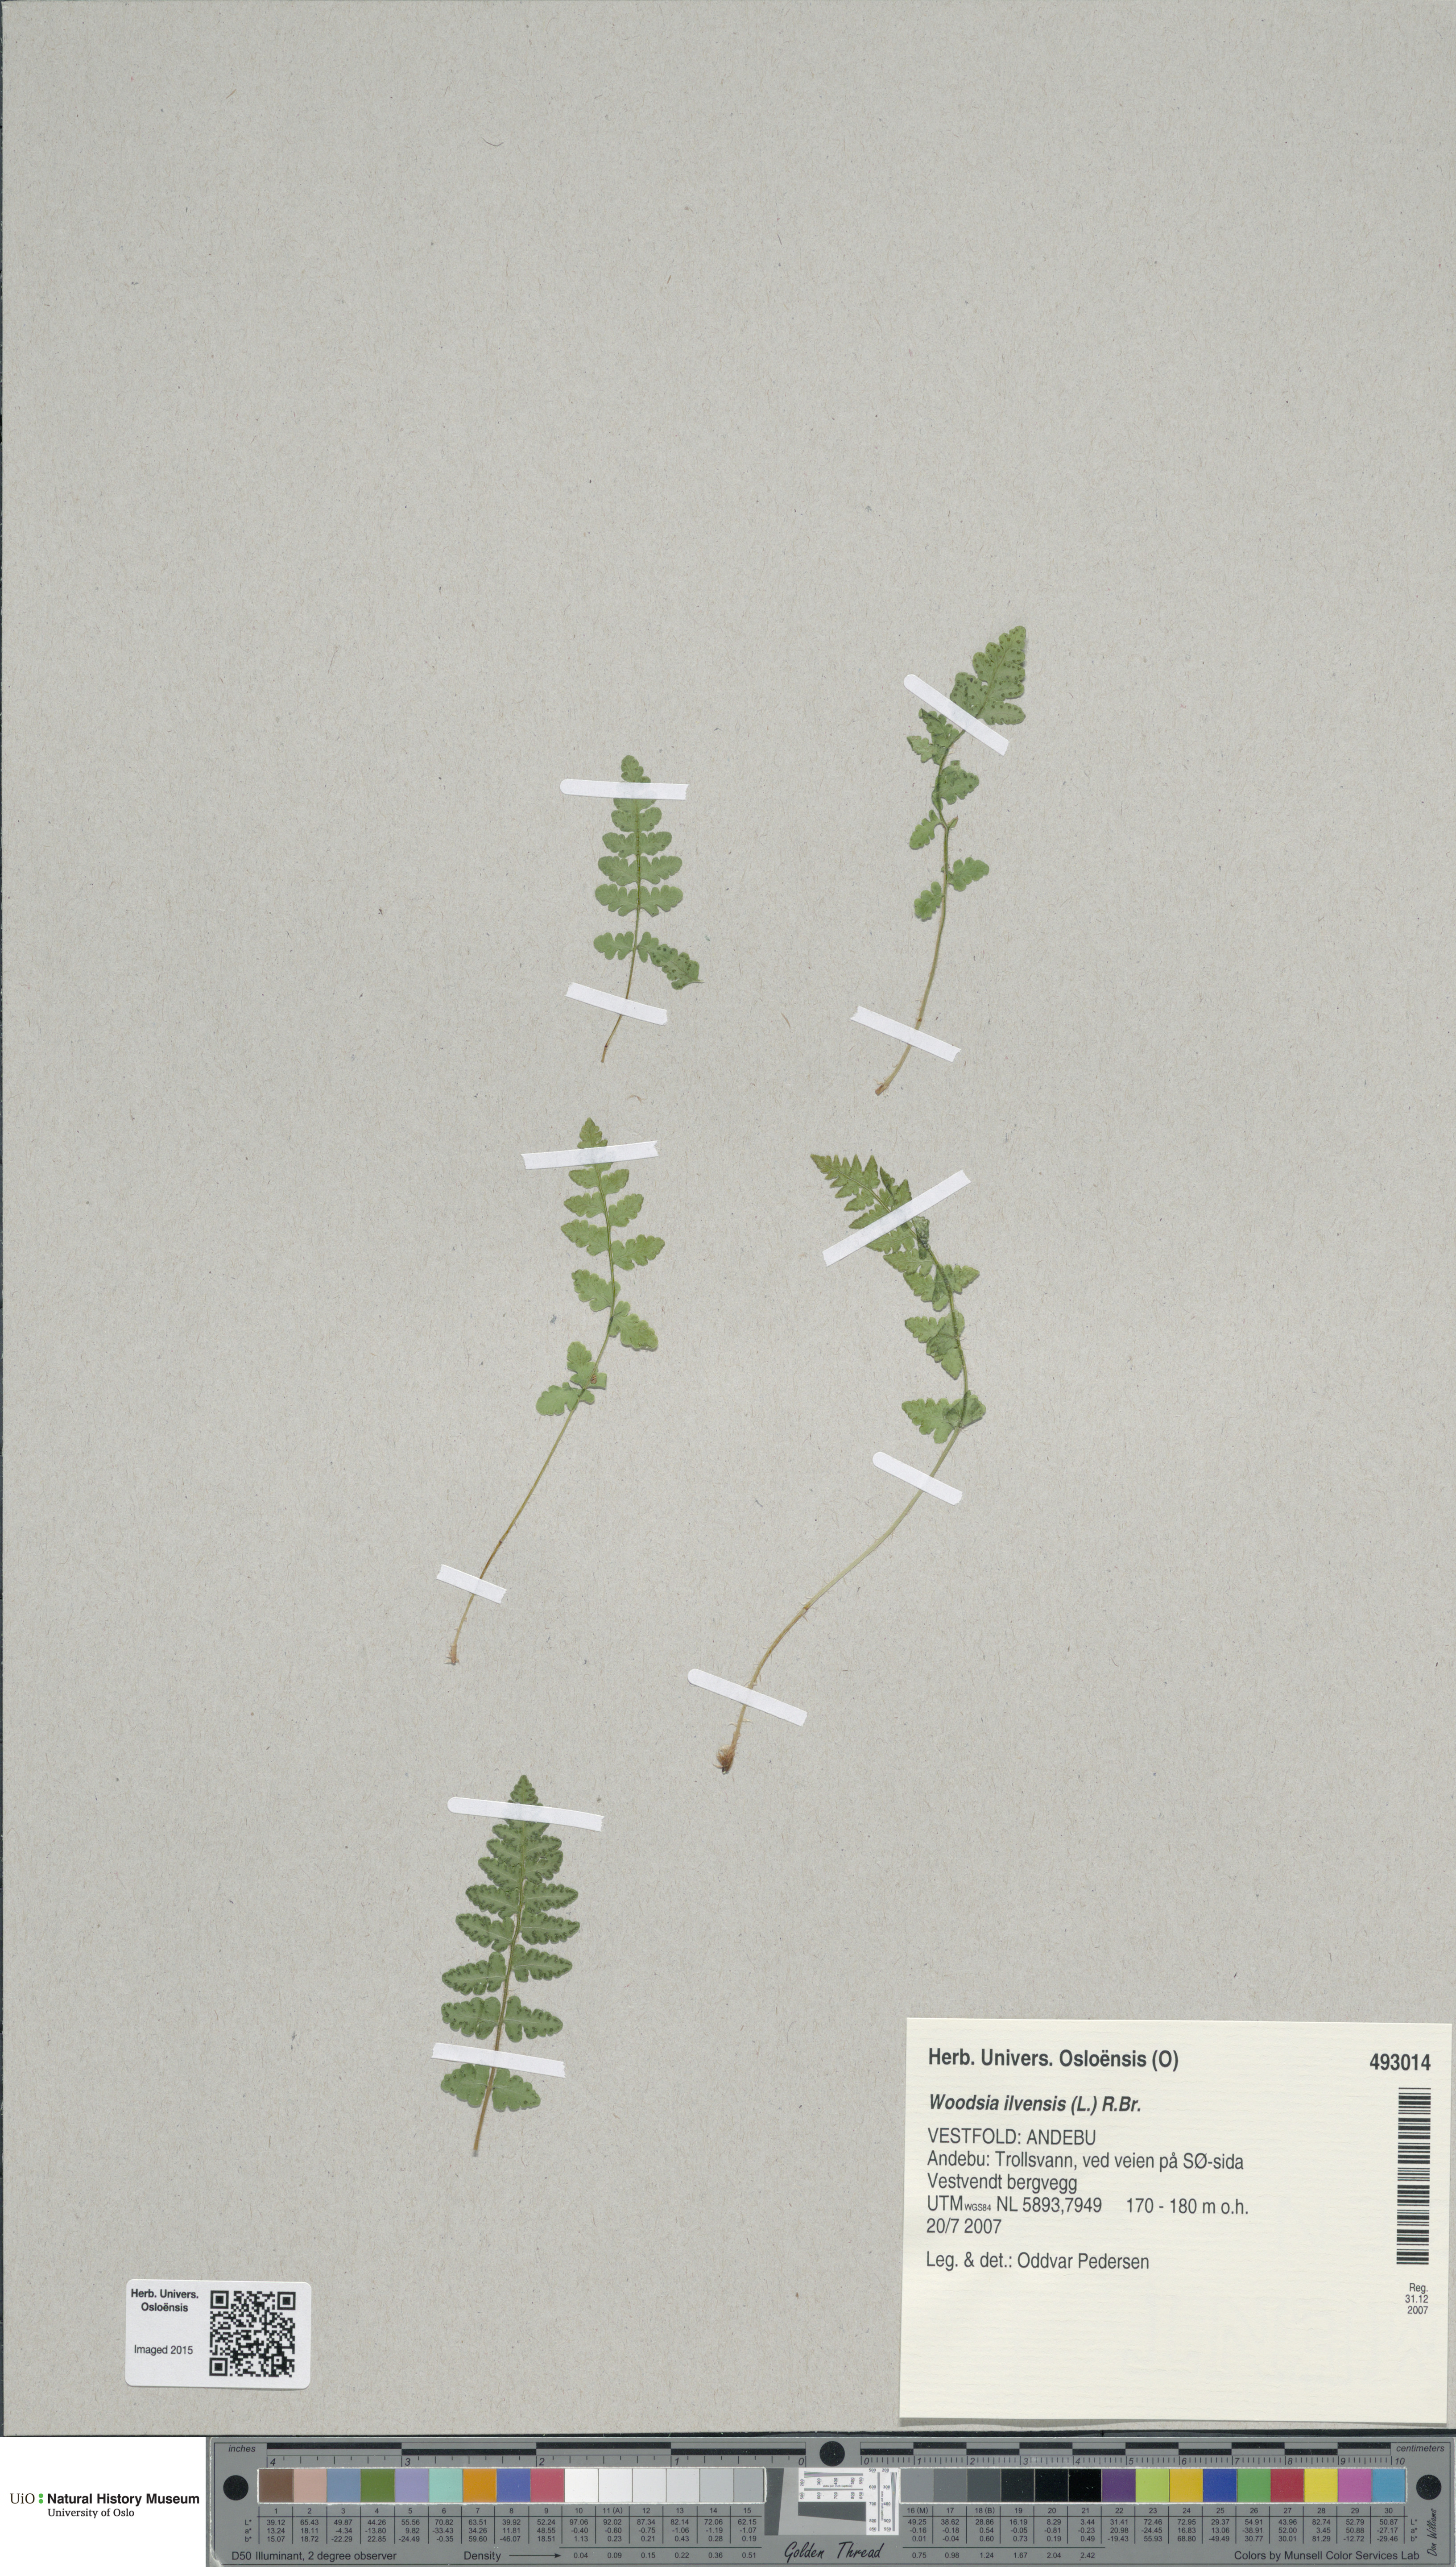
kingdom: Plantae
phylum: Tracheophyta
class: Polypodiopsida
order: Polypodiales
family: Woodsiaceae
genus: Woodsia
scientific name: Woodsia ilvensis
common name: Fragrant woodsia
